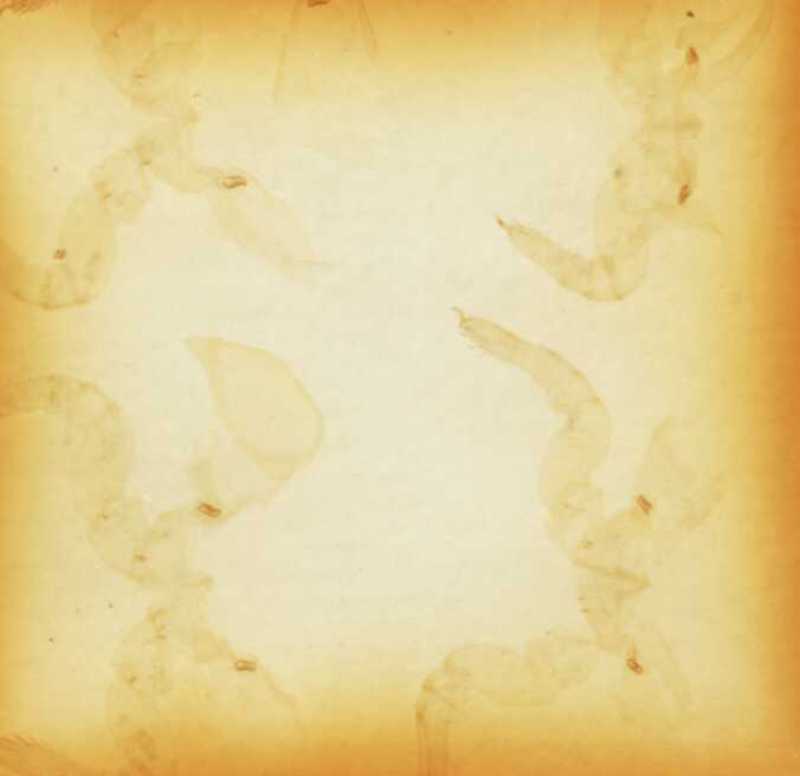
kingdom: Animalia
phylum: Arthropoda
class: Diplopoda
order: Sphaerotheriida
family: Cyliosomatidae
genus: Cyliosoma
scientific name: Cyliosoma queenslandiae
